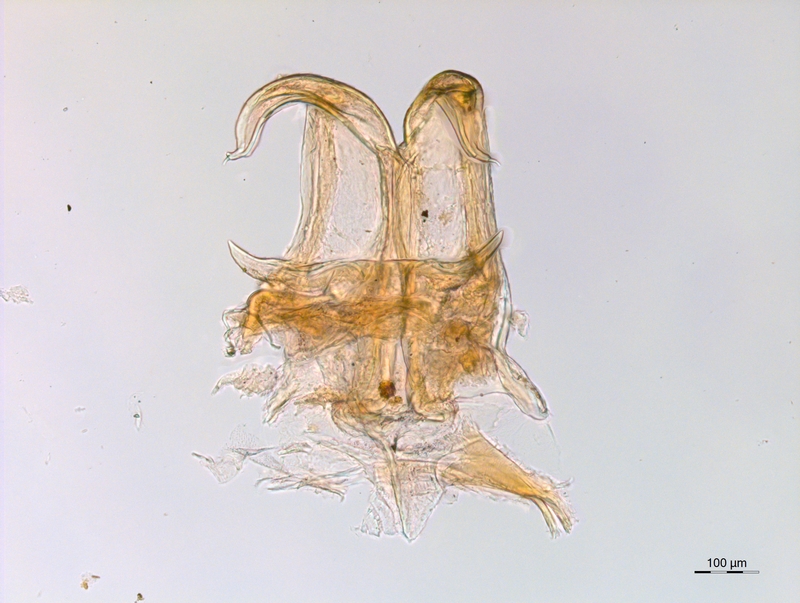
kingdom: Animalia
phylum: Arthropoda
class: Diplopoda
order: Chordeumatida
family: Craspedosomatidae
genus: Atractosoma
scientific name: Atractosoma cecconii
